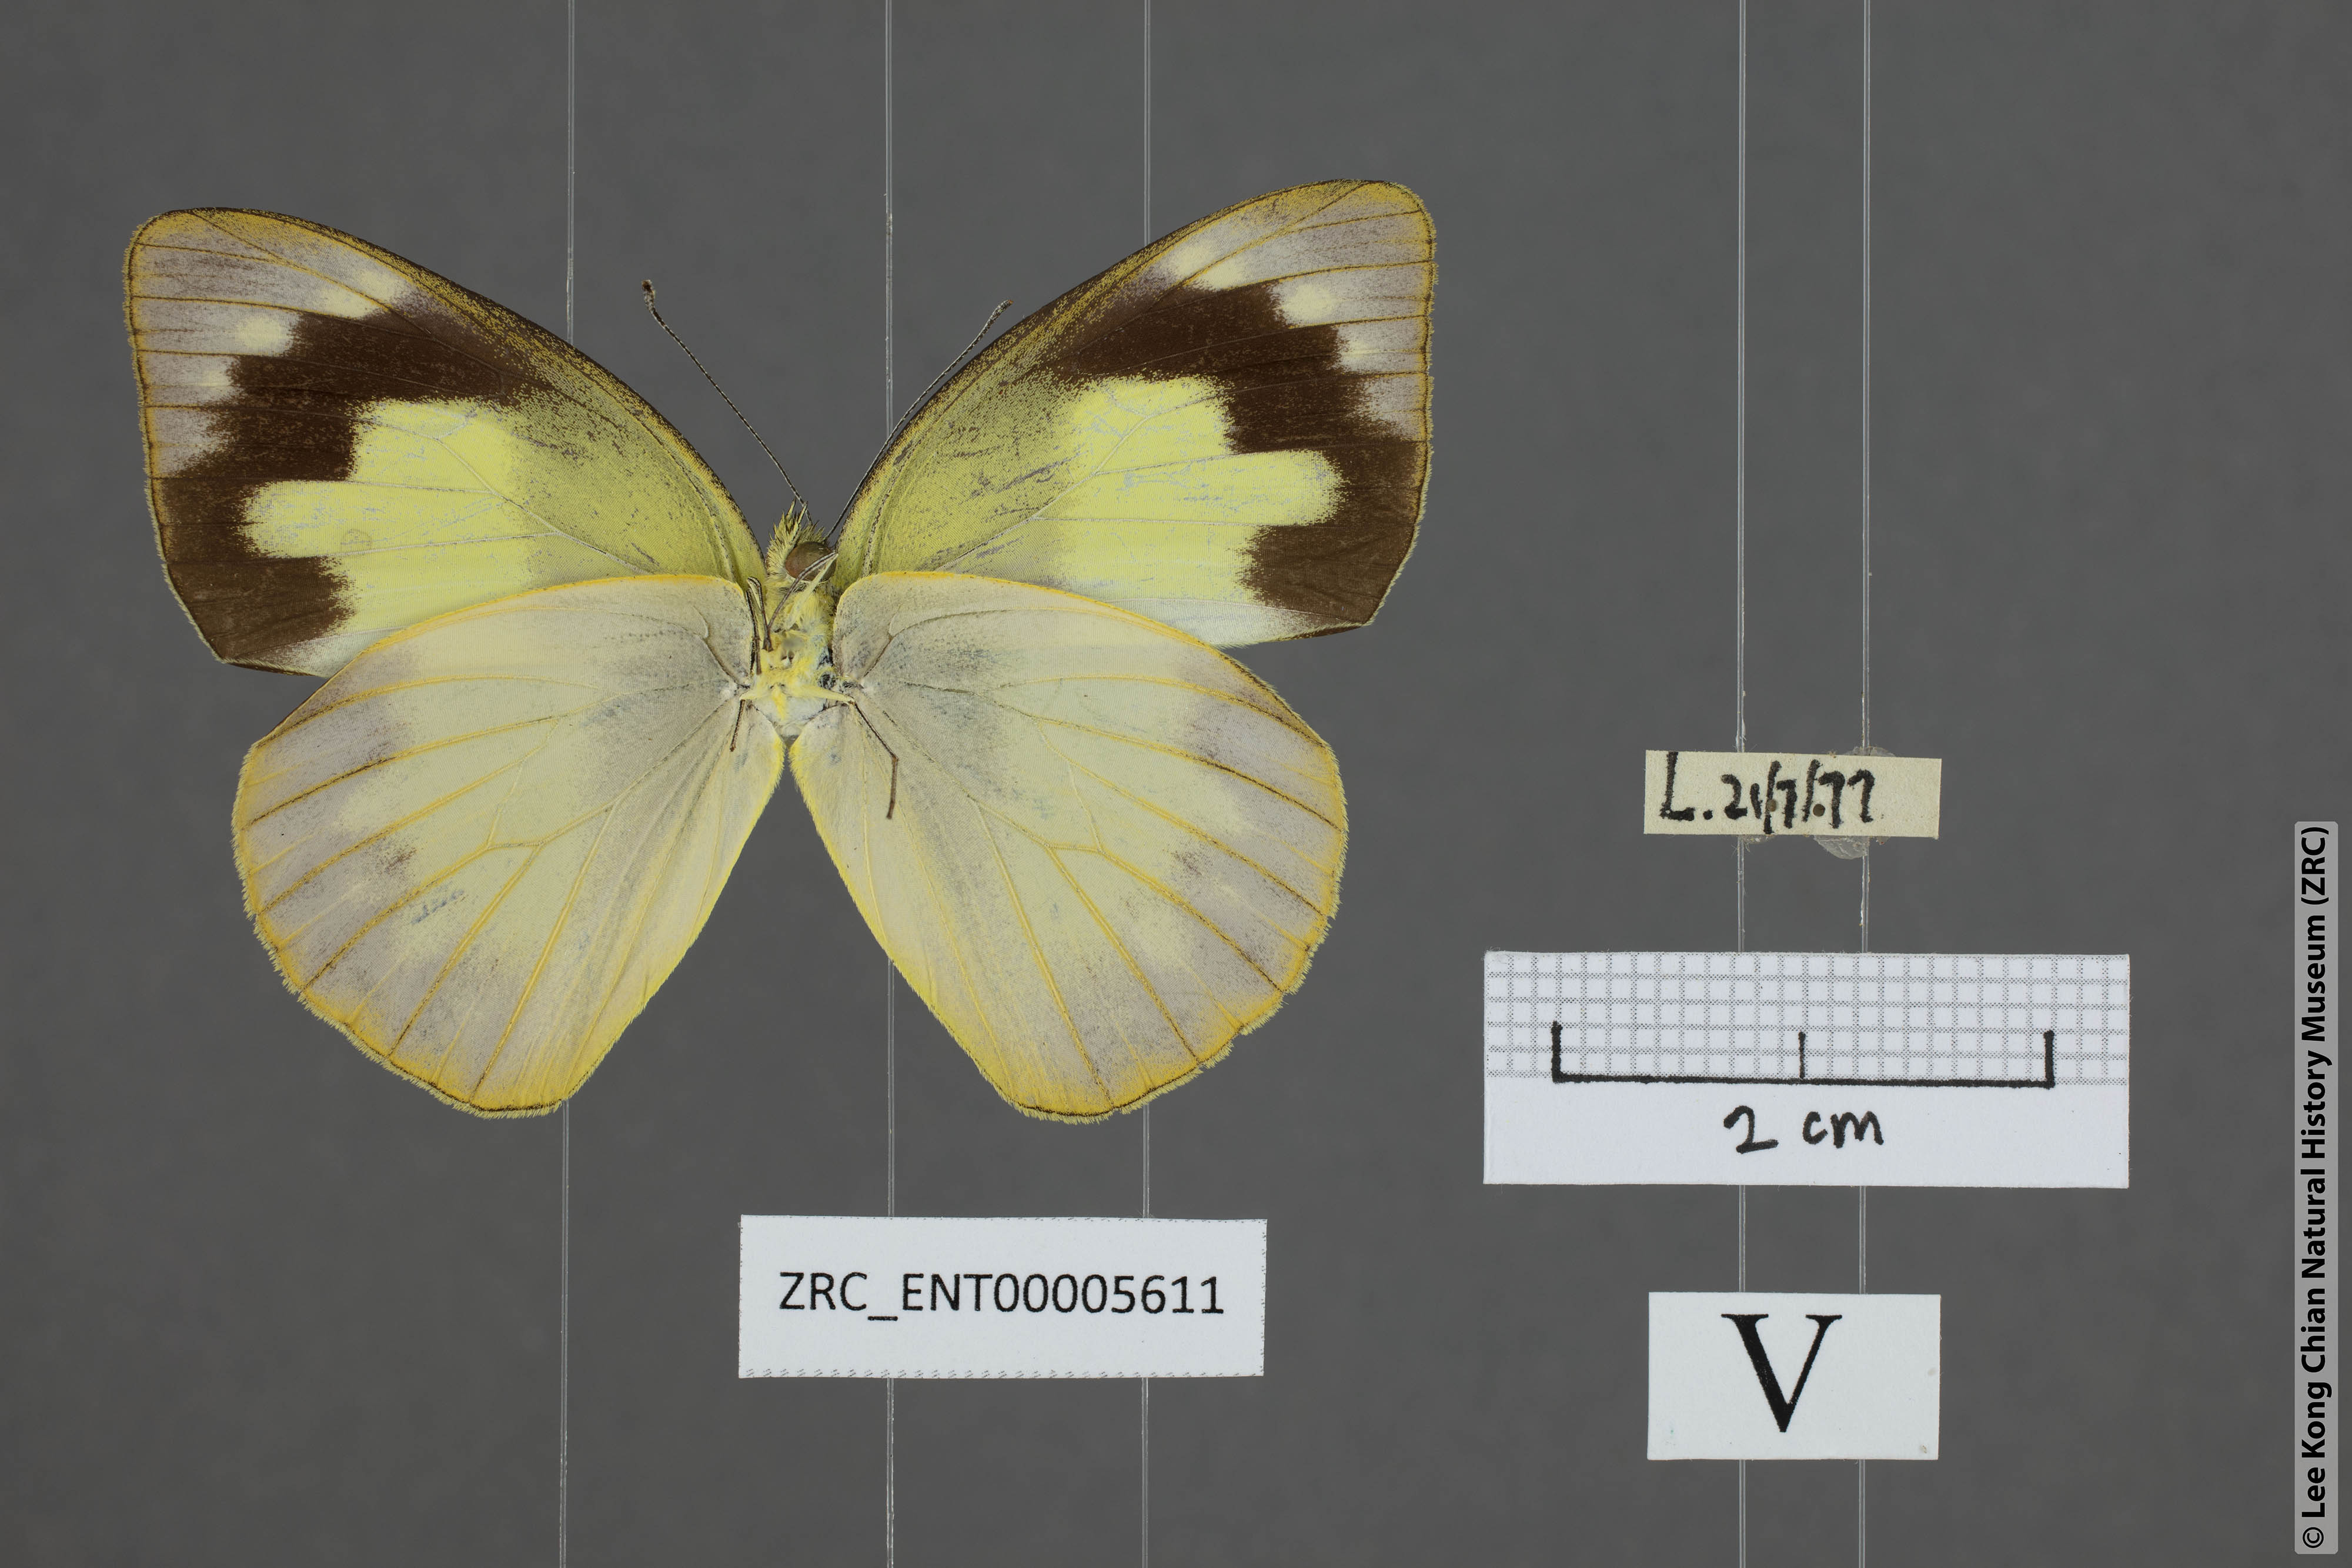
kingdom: Animalia
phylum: Arthropoda
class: Insecta
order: Lepidoptera
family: Pieridae
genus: Appias
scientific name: Appias paulina
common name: Ceylon lesser albatross
